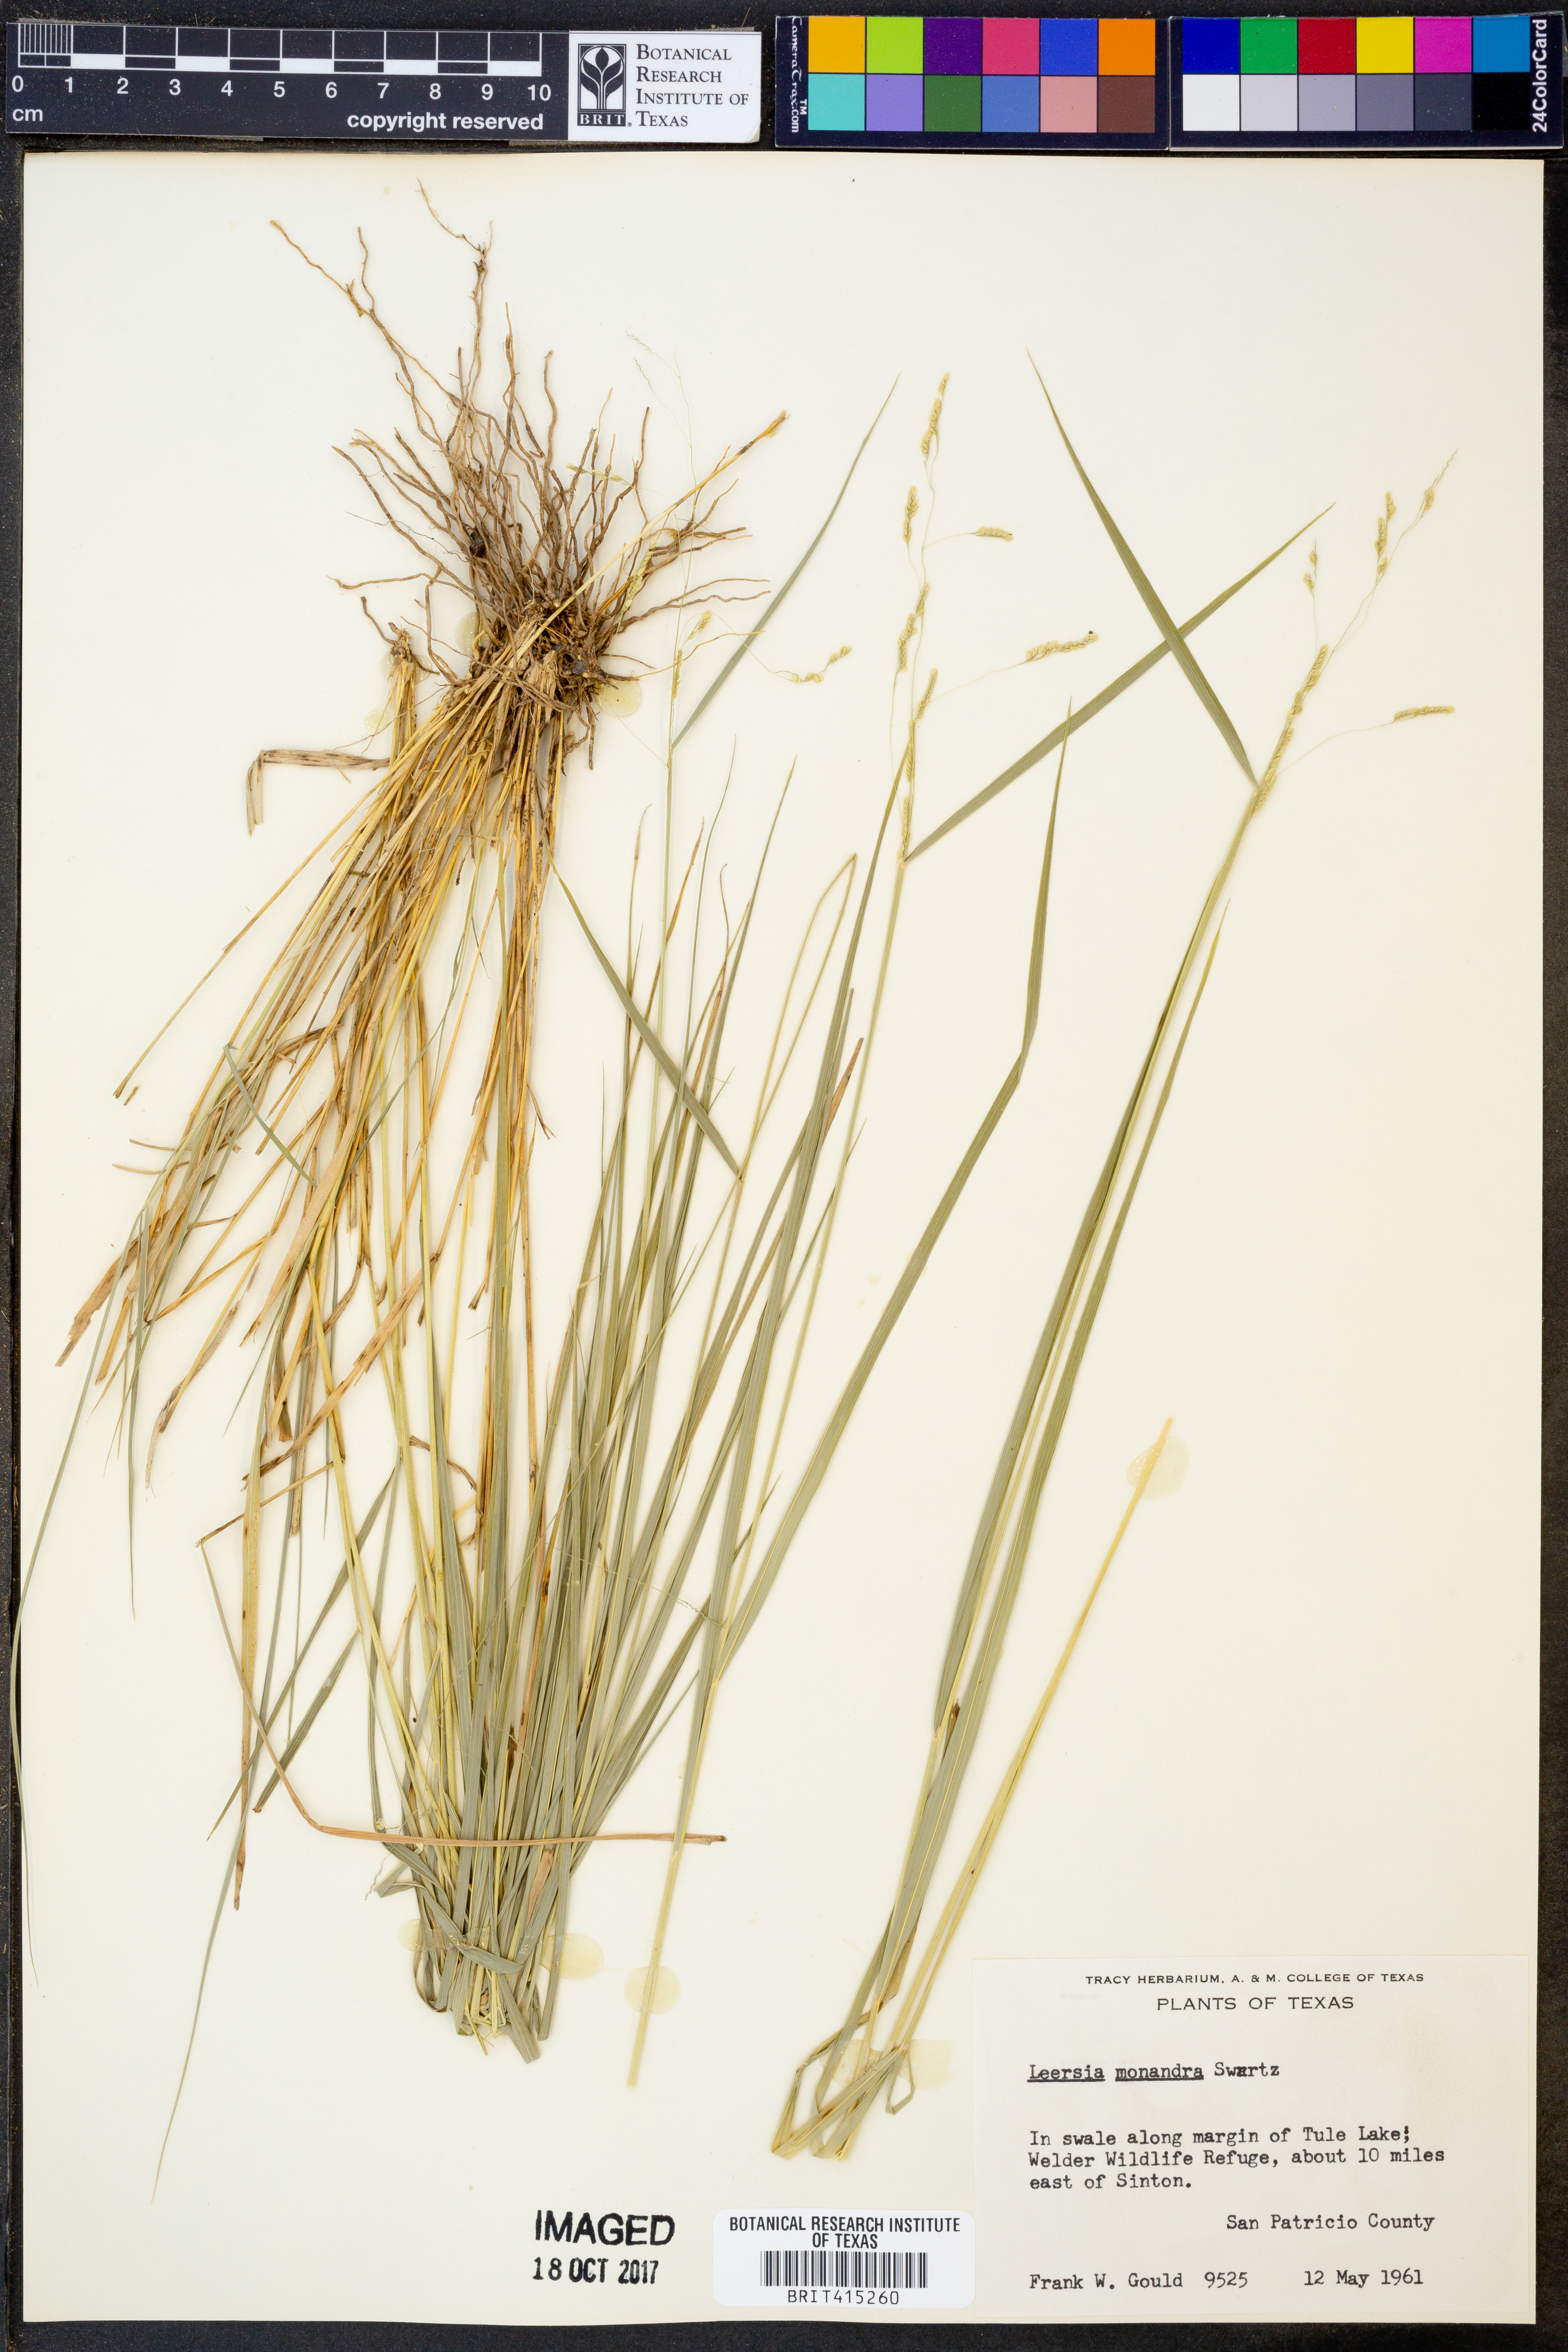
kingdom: Plantae
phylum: Tracheophyta
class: Liliopsida
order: Poales
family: Poaceae
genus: Leersia
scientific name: Leersia monandra
